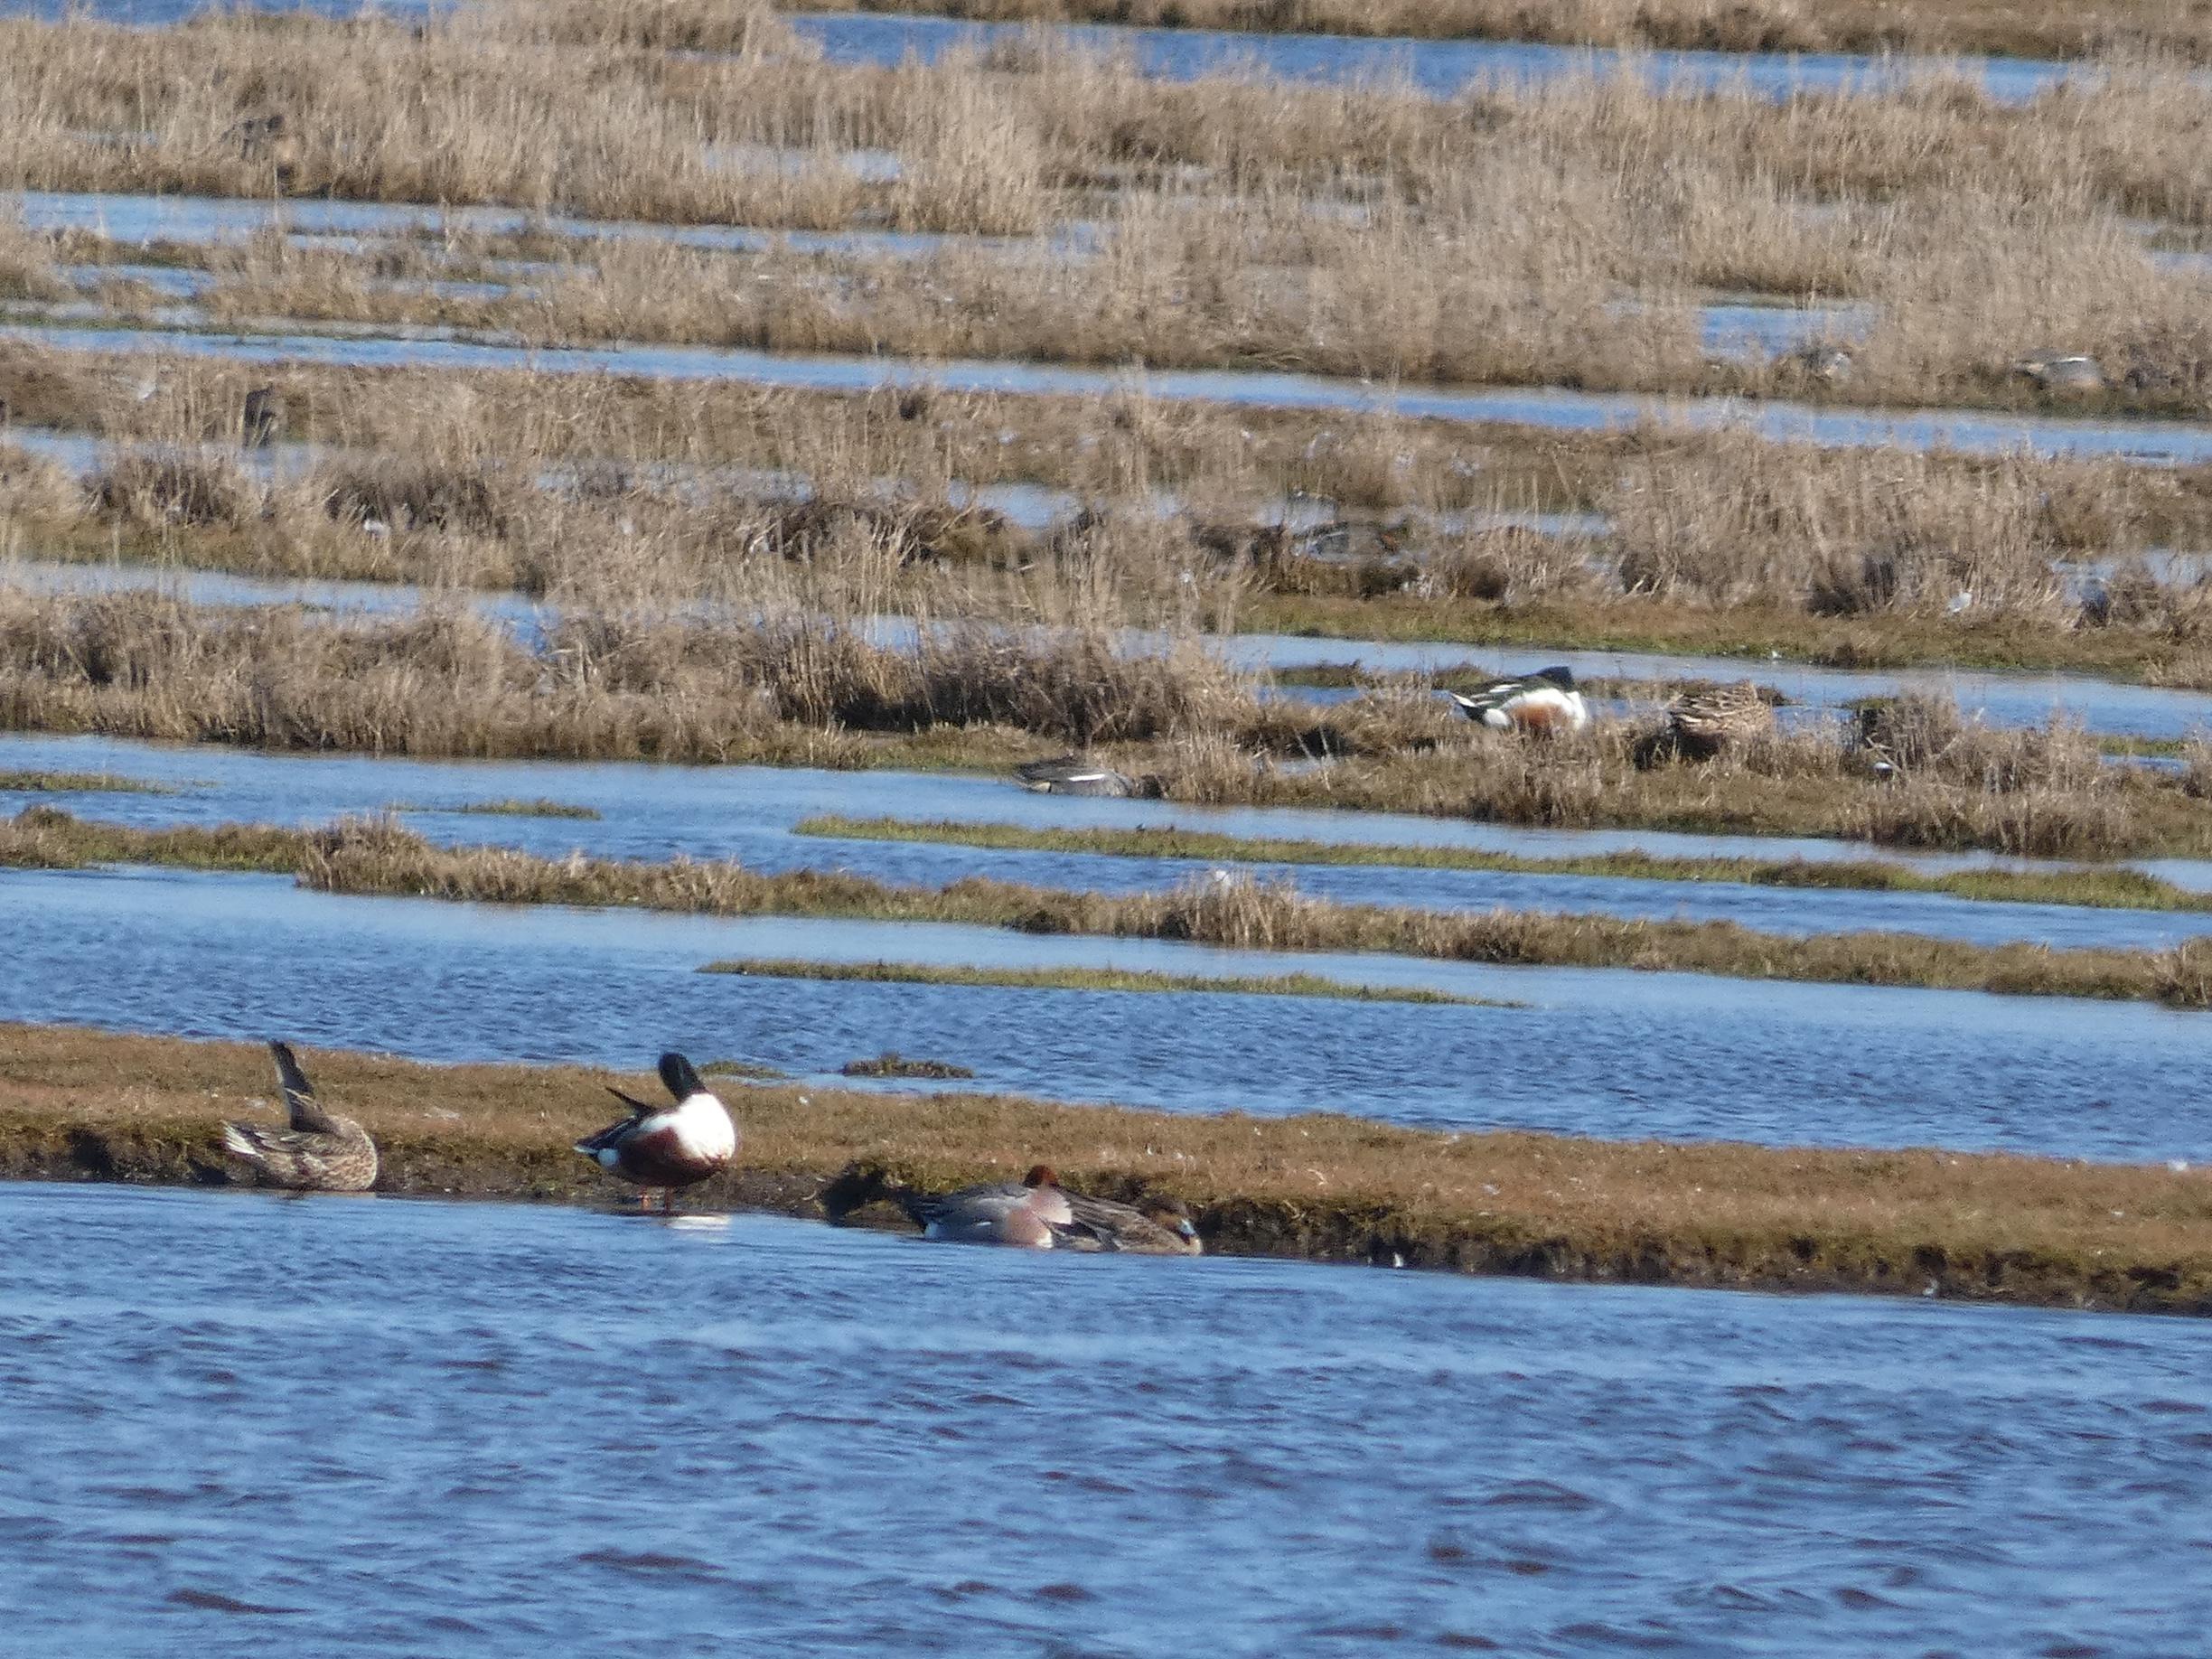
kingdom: Animalia
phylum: Chordata
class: Aves
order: Anseriformes
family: Anatidae
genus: Spatula
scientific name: Spatula clypeata
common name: Skeand
